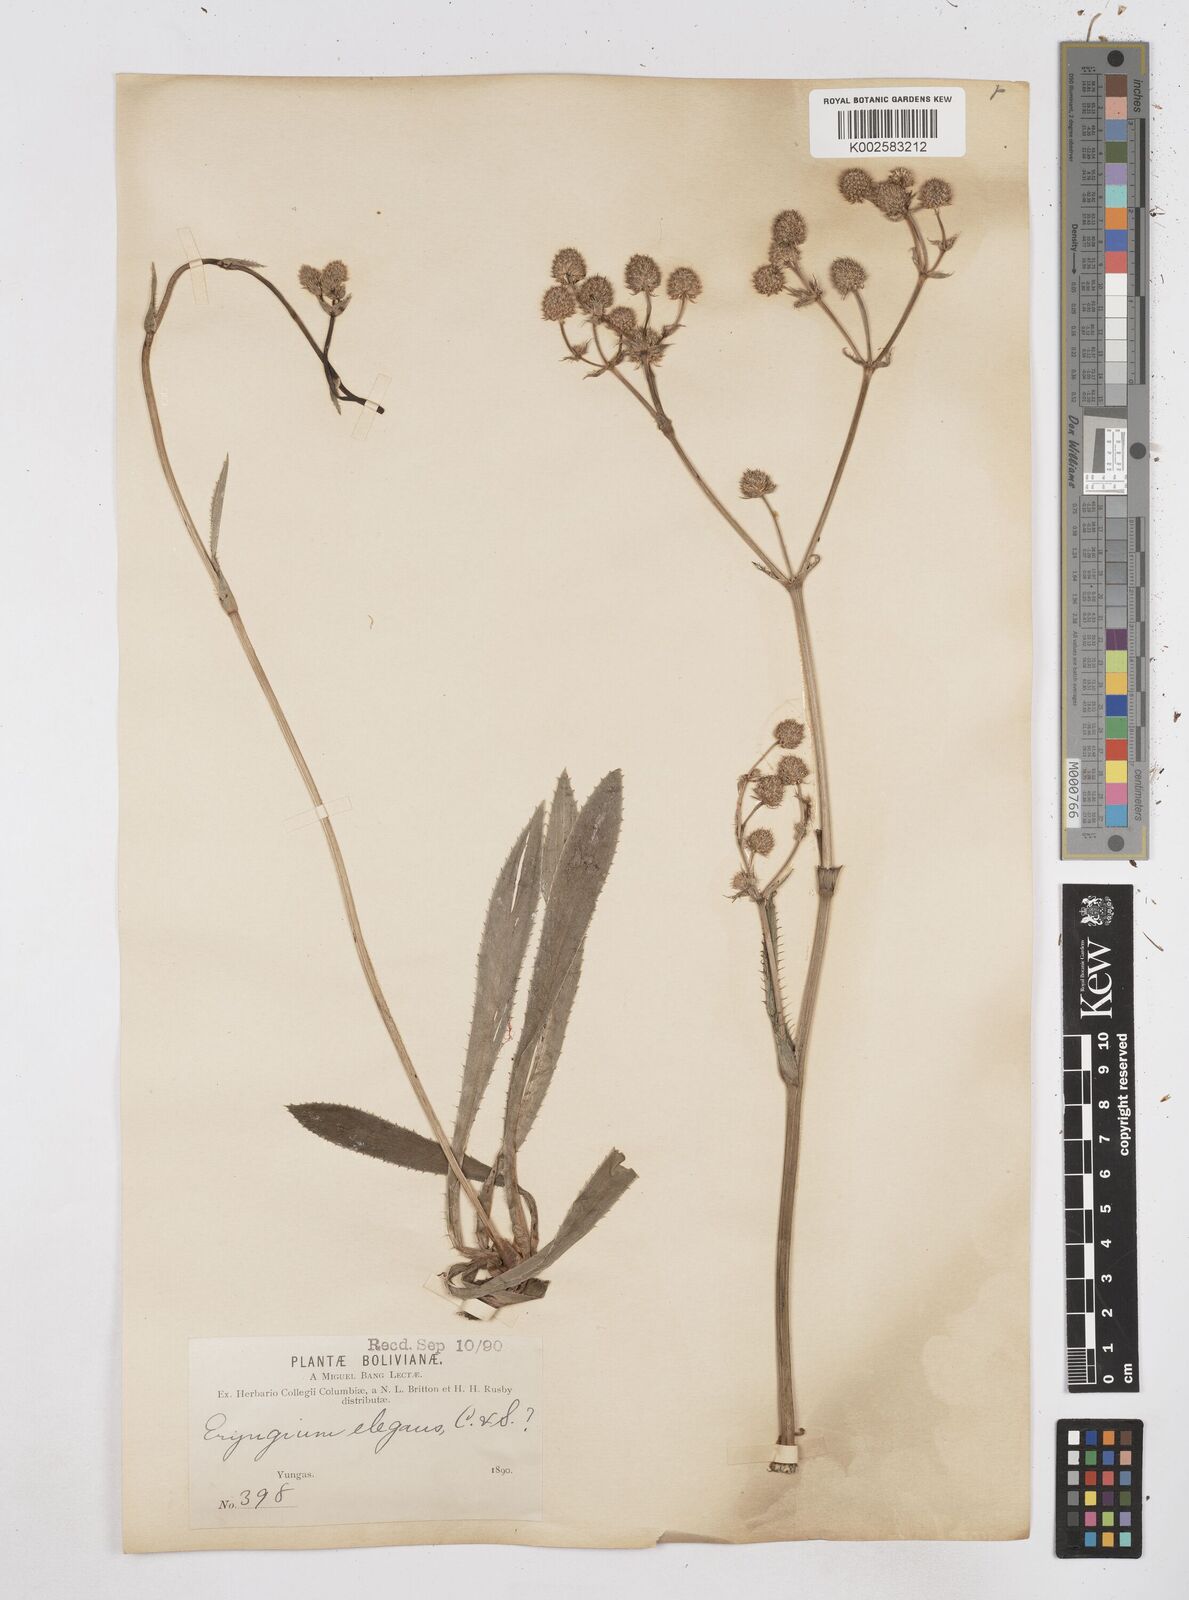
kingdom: Plantae
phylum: Tracheophyta
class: Magnoliopsida
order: Apiales
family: Apiaceae
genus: Eryngium
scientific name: Eryngium elegans
